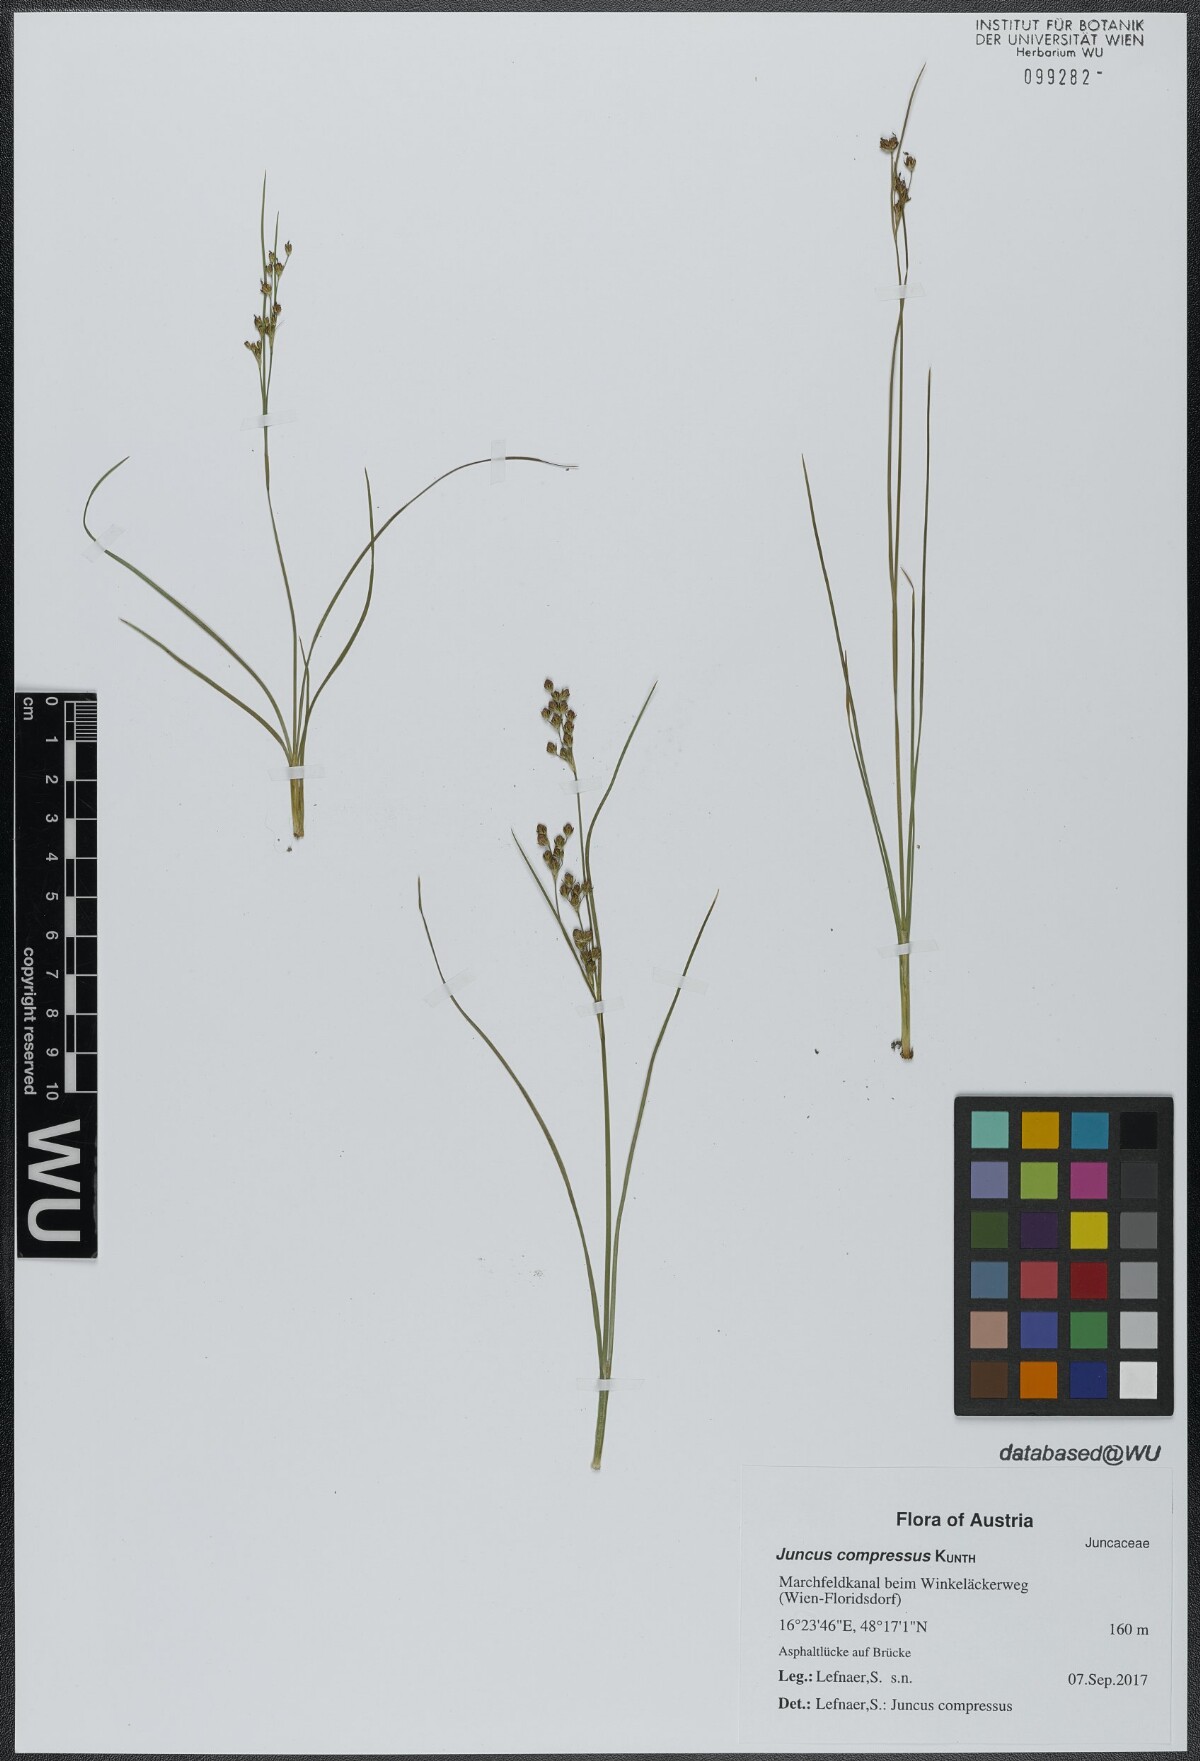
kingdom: Plantae
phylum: Tracheophyta
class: Liliopsida
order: Poales
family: Juncaceae
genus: Juncus
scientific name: Juncus balticus
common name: Baltic rush
